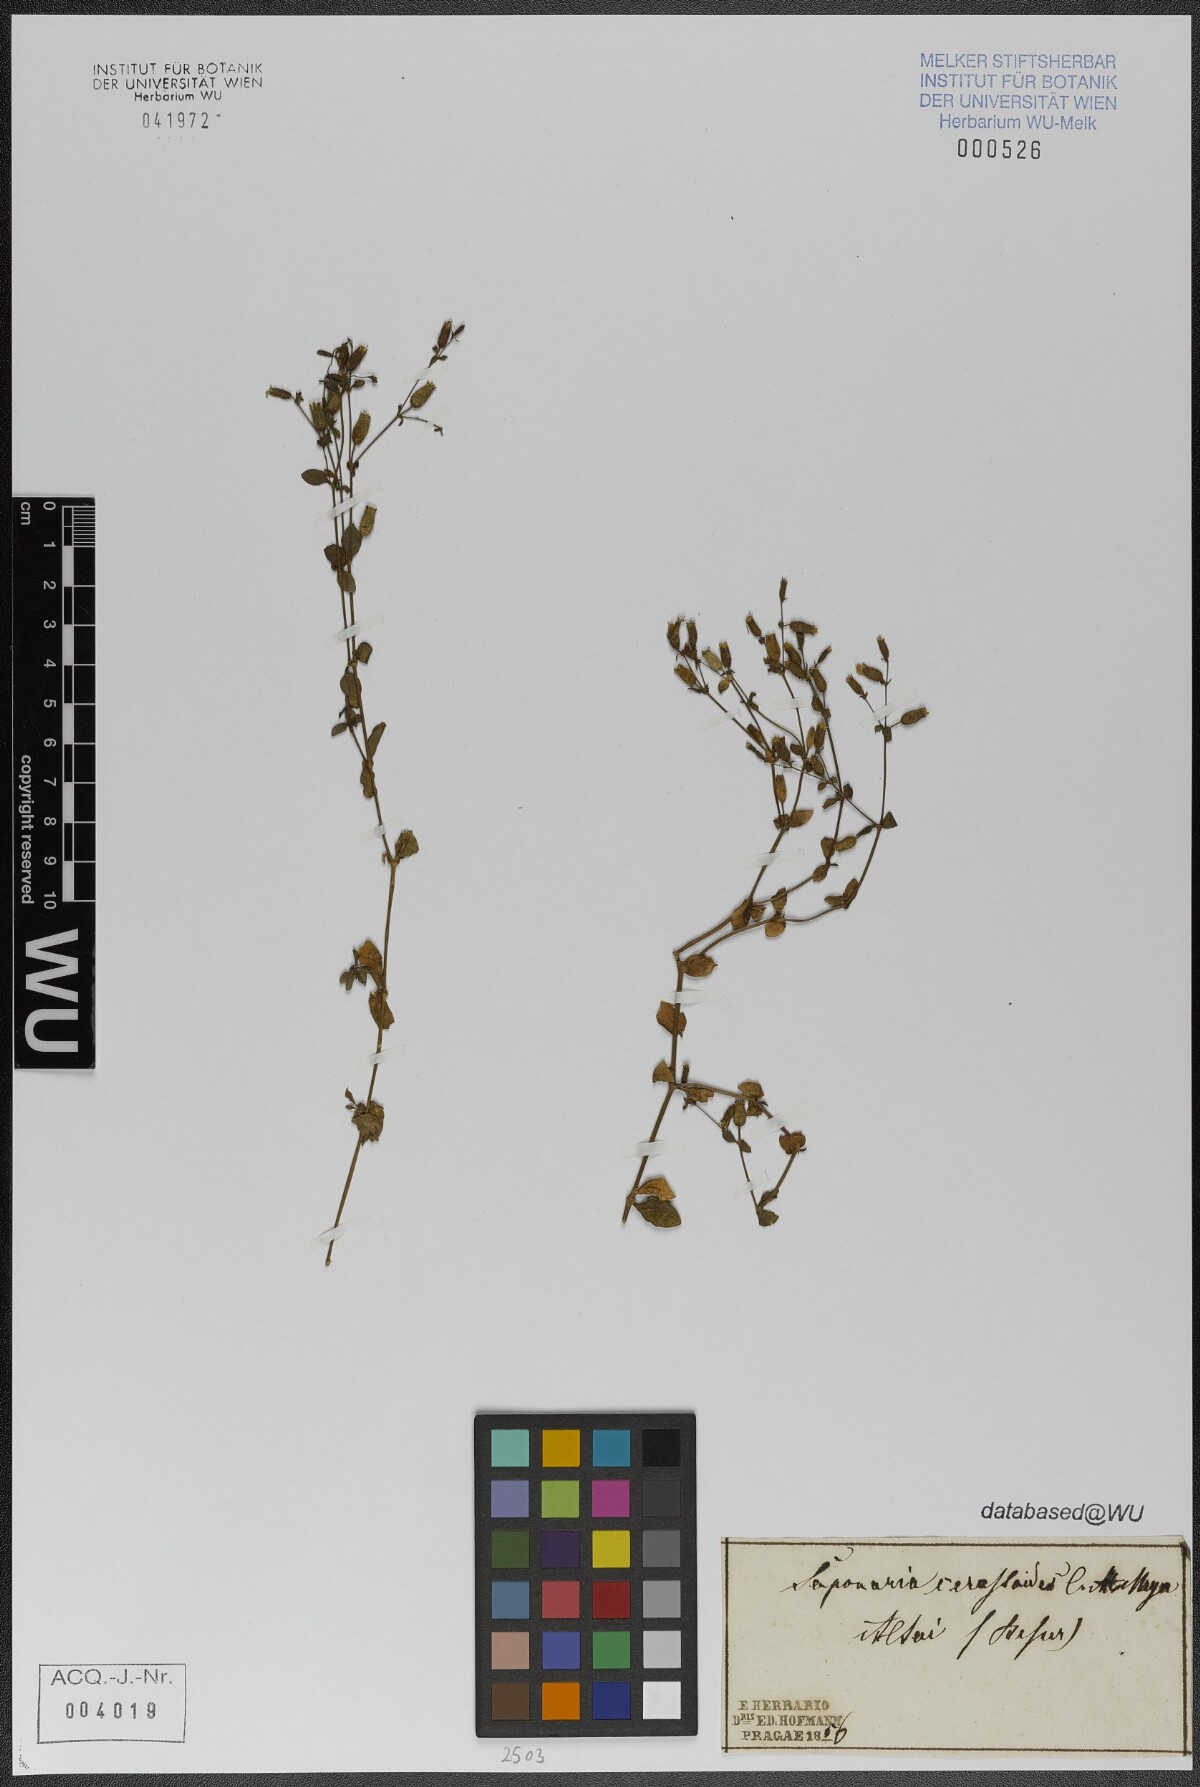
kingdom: Plantae
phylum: Tracheophyta
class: Magnoliopsida
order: Caryophyllales
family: Caryophyllaceae
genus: Saponaria
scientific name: Saponaria cerastoides
